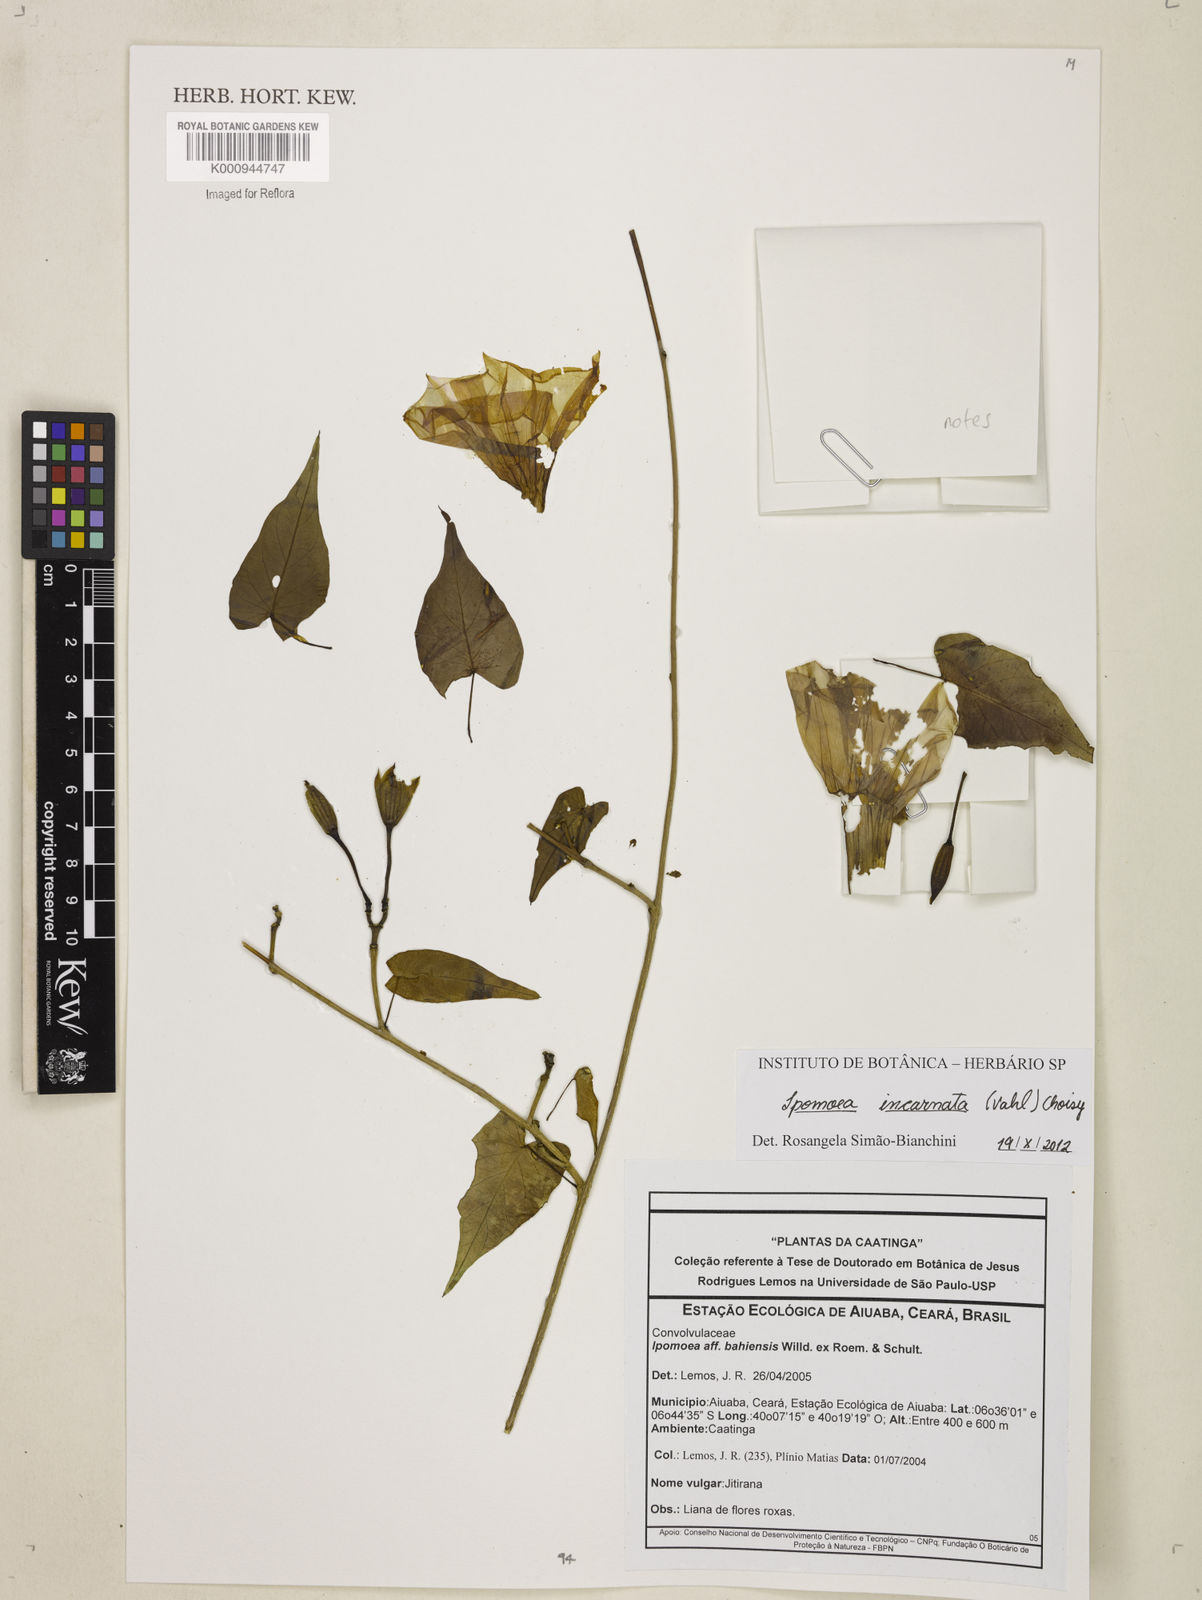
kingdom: Plantae
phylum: Tracheophyta
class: Magnoliopsida
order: Solanales
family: Convolvulaceae
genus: Ipomoea
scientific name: Ipomoea incarnata
